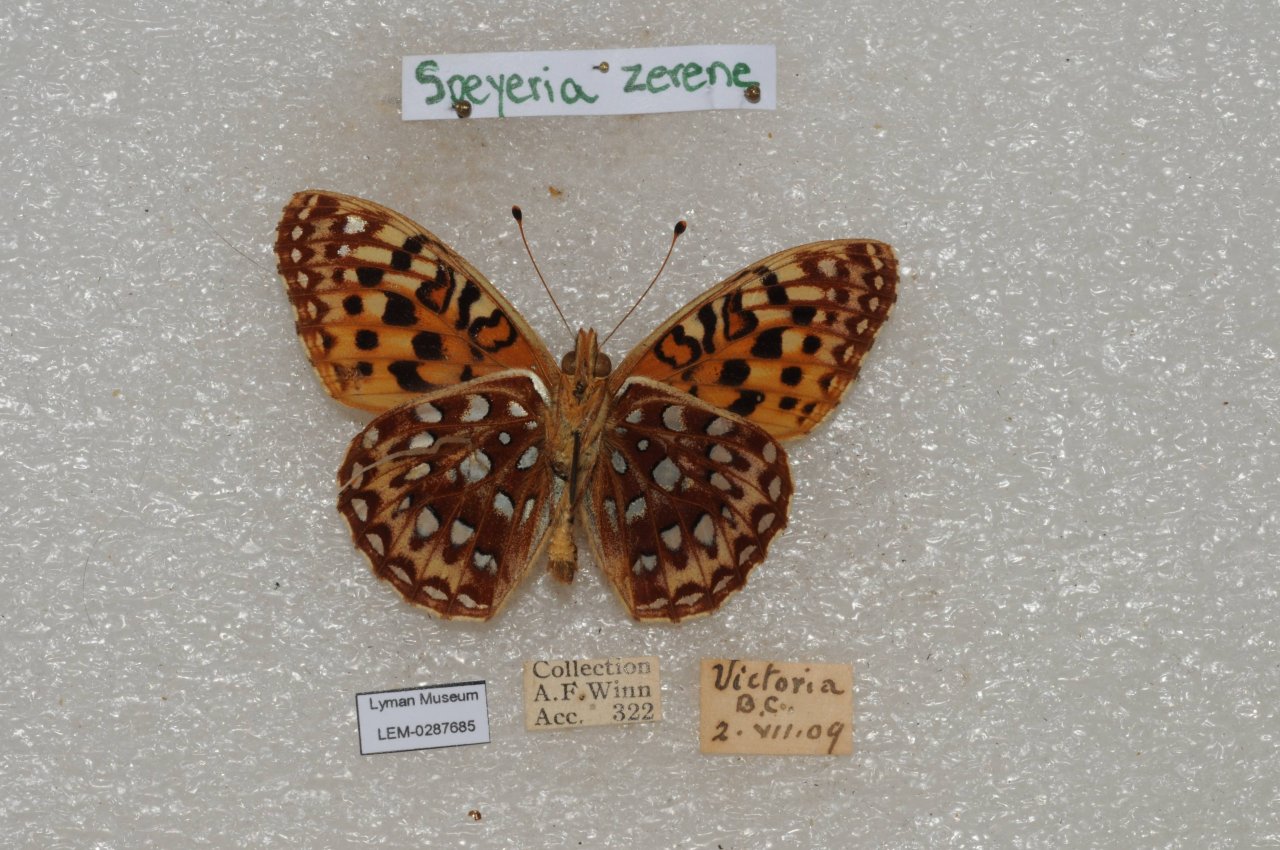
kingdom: Animalia
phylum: Arthropoda
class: Insecta
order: Lepidoptera
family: Nymphalidae
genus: Speyeria
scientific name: Speyeria zerene
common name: Zerene Fritillary
